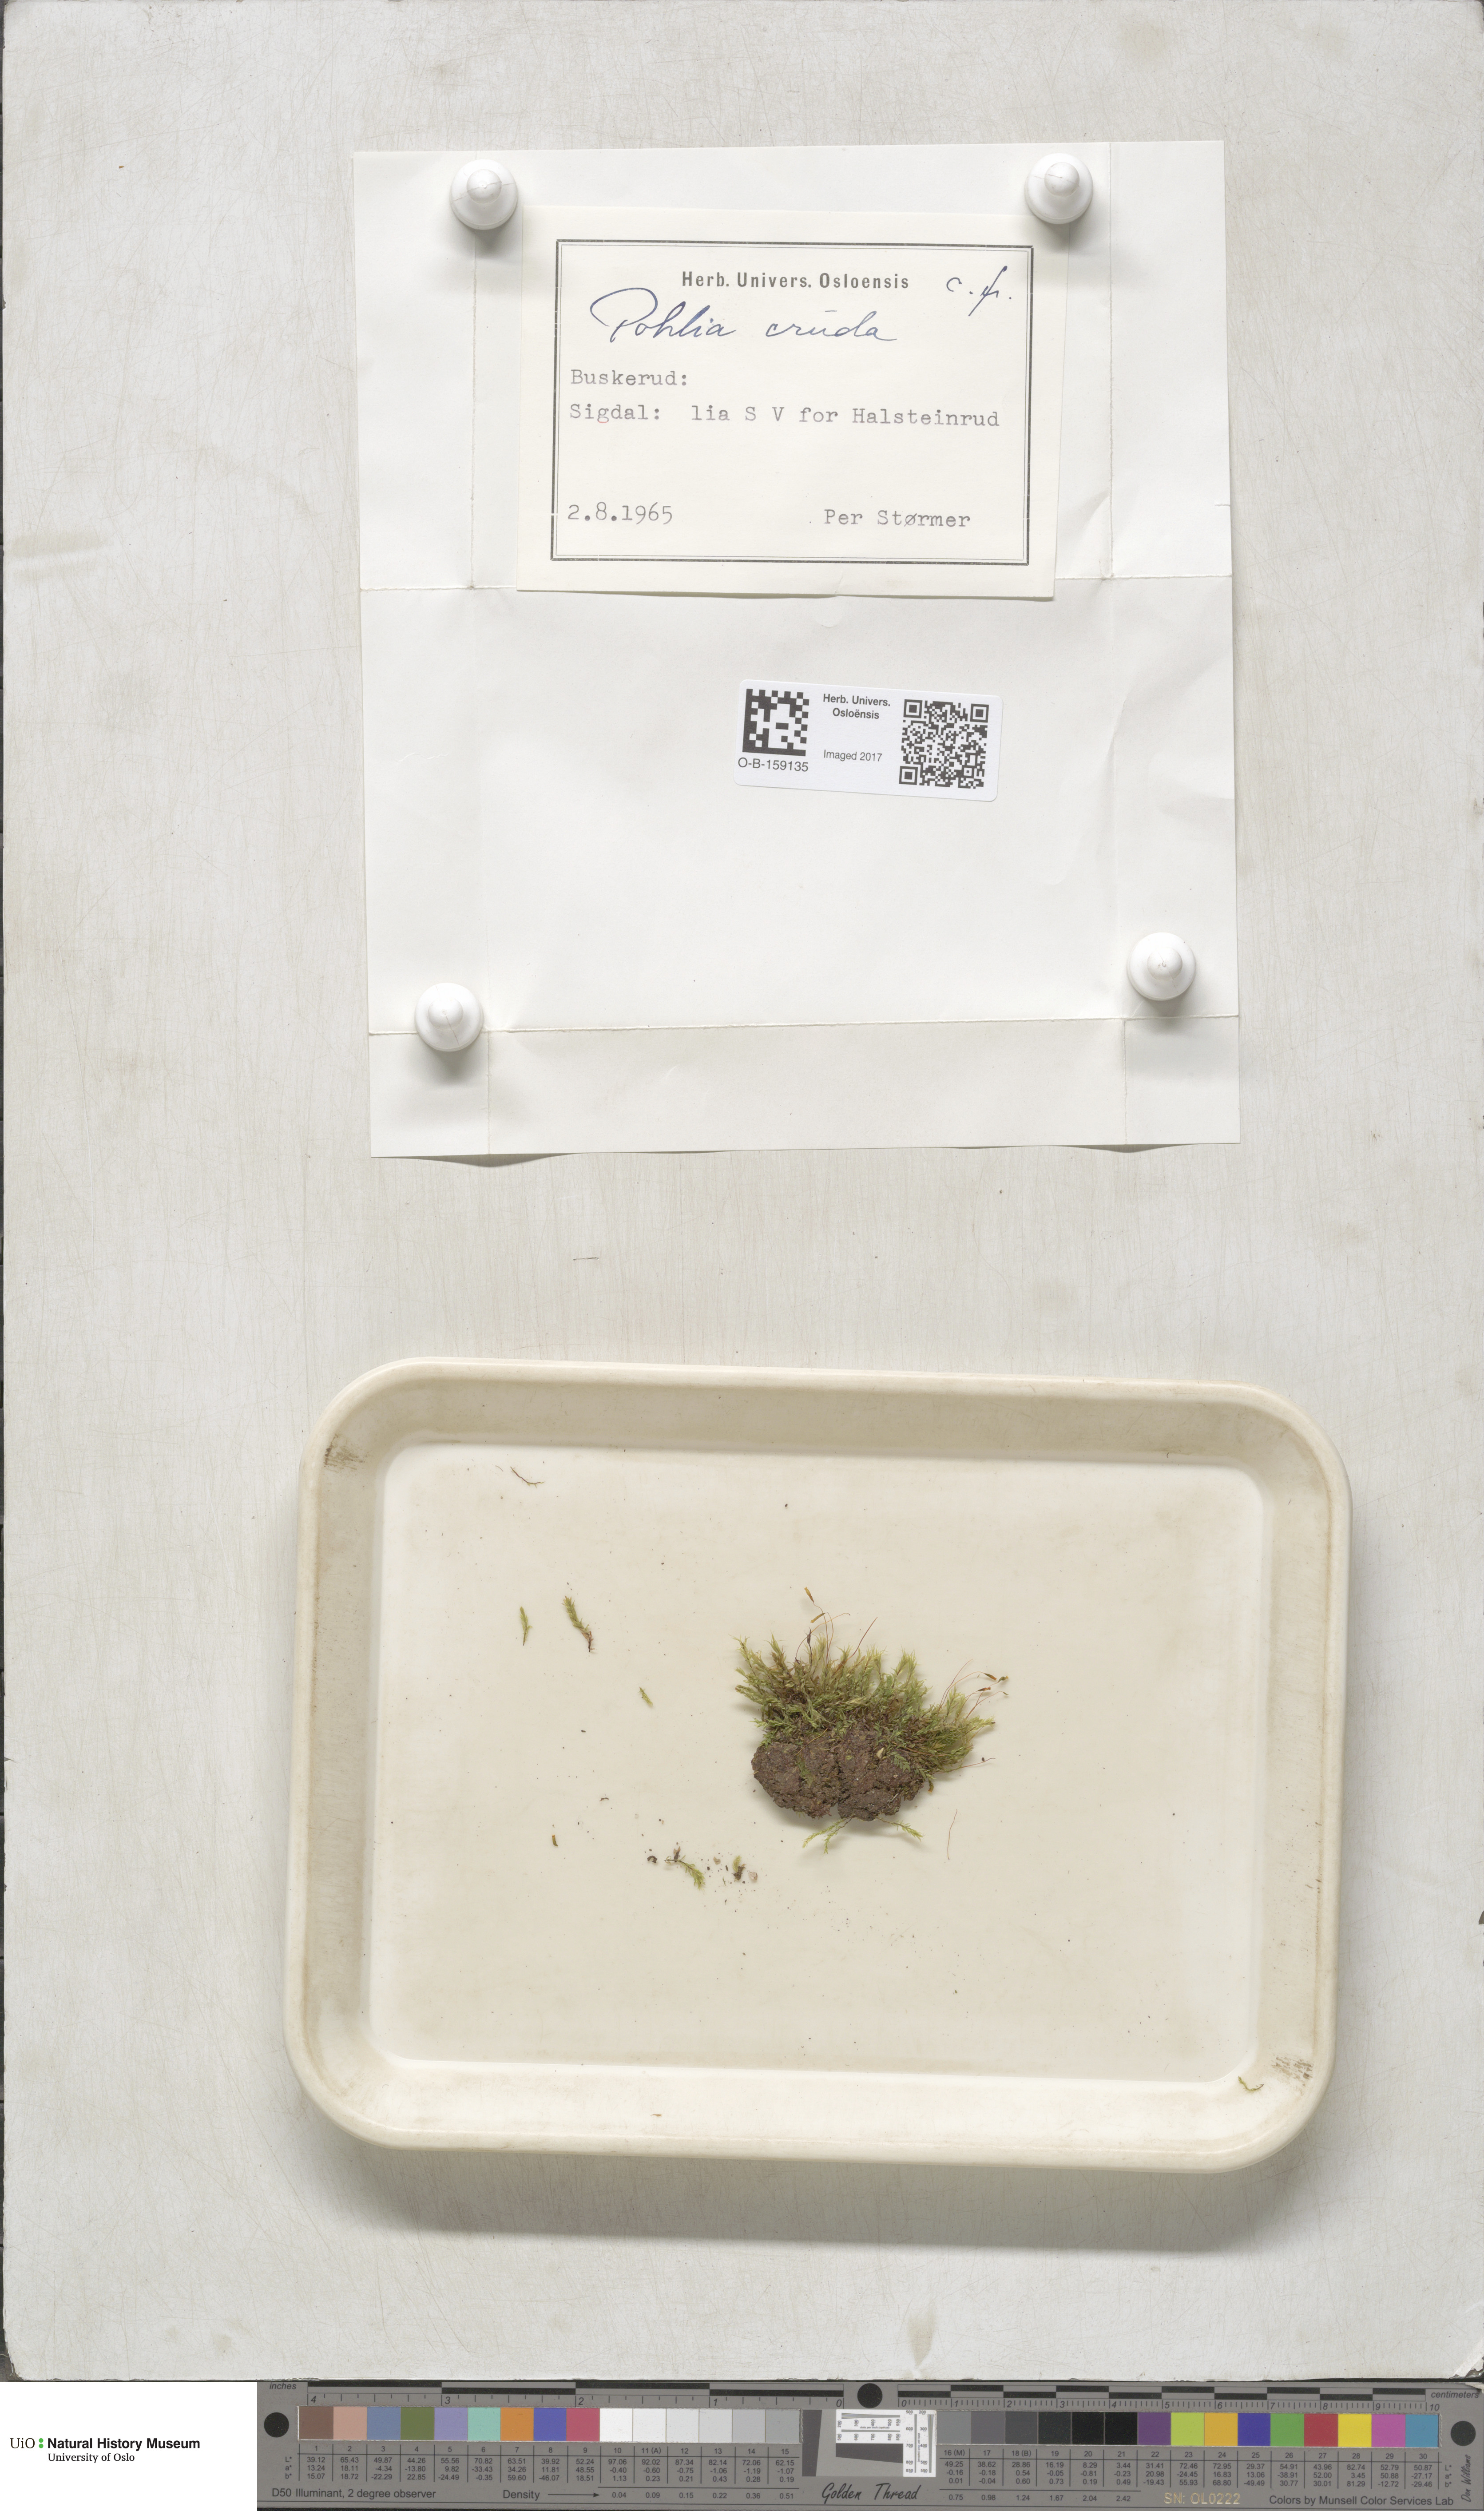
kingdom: Plantae
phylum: Bryophyta
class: Bryopsida
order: Bryales
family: Mniaceae
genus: Pohlia
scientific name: Pohlia cruda
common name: Opal nodding moss
